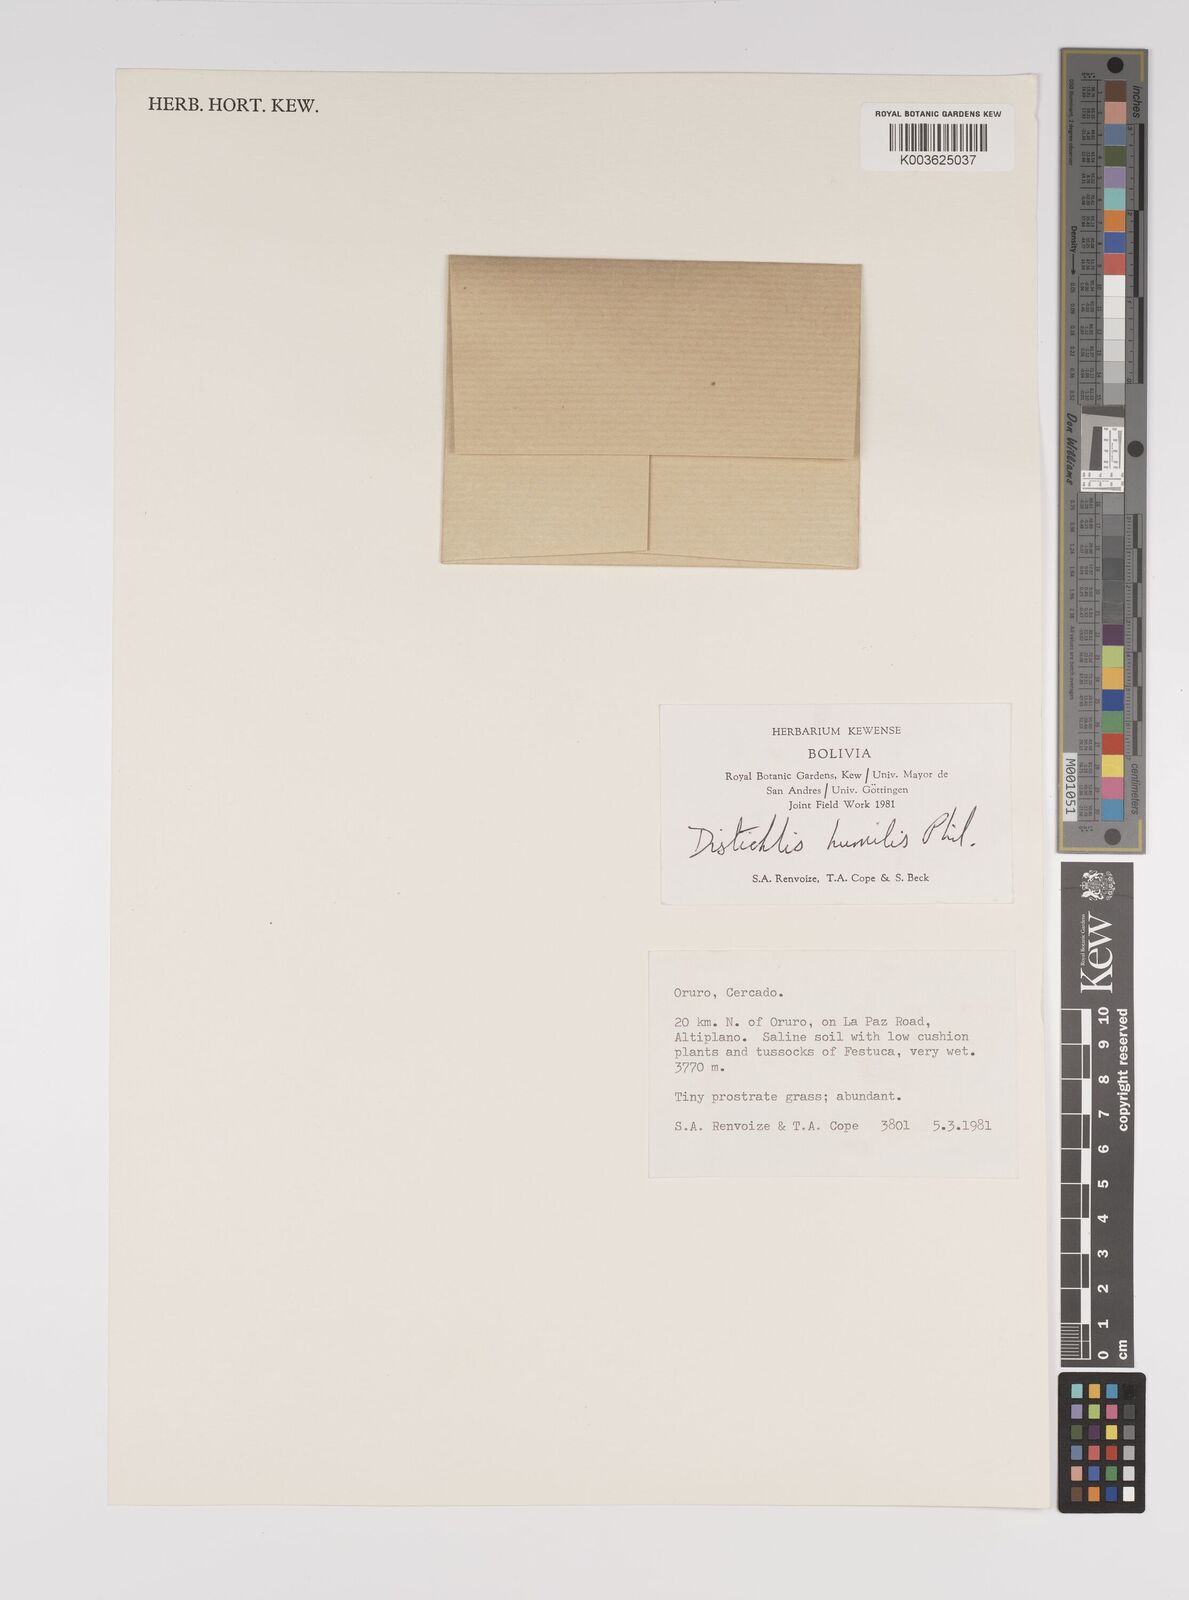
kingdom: Plantae
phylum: Tracheophyta
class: Liliopsida
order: Poales
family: Poaceae
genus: Distichlis
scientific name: Distichlis humilis
